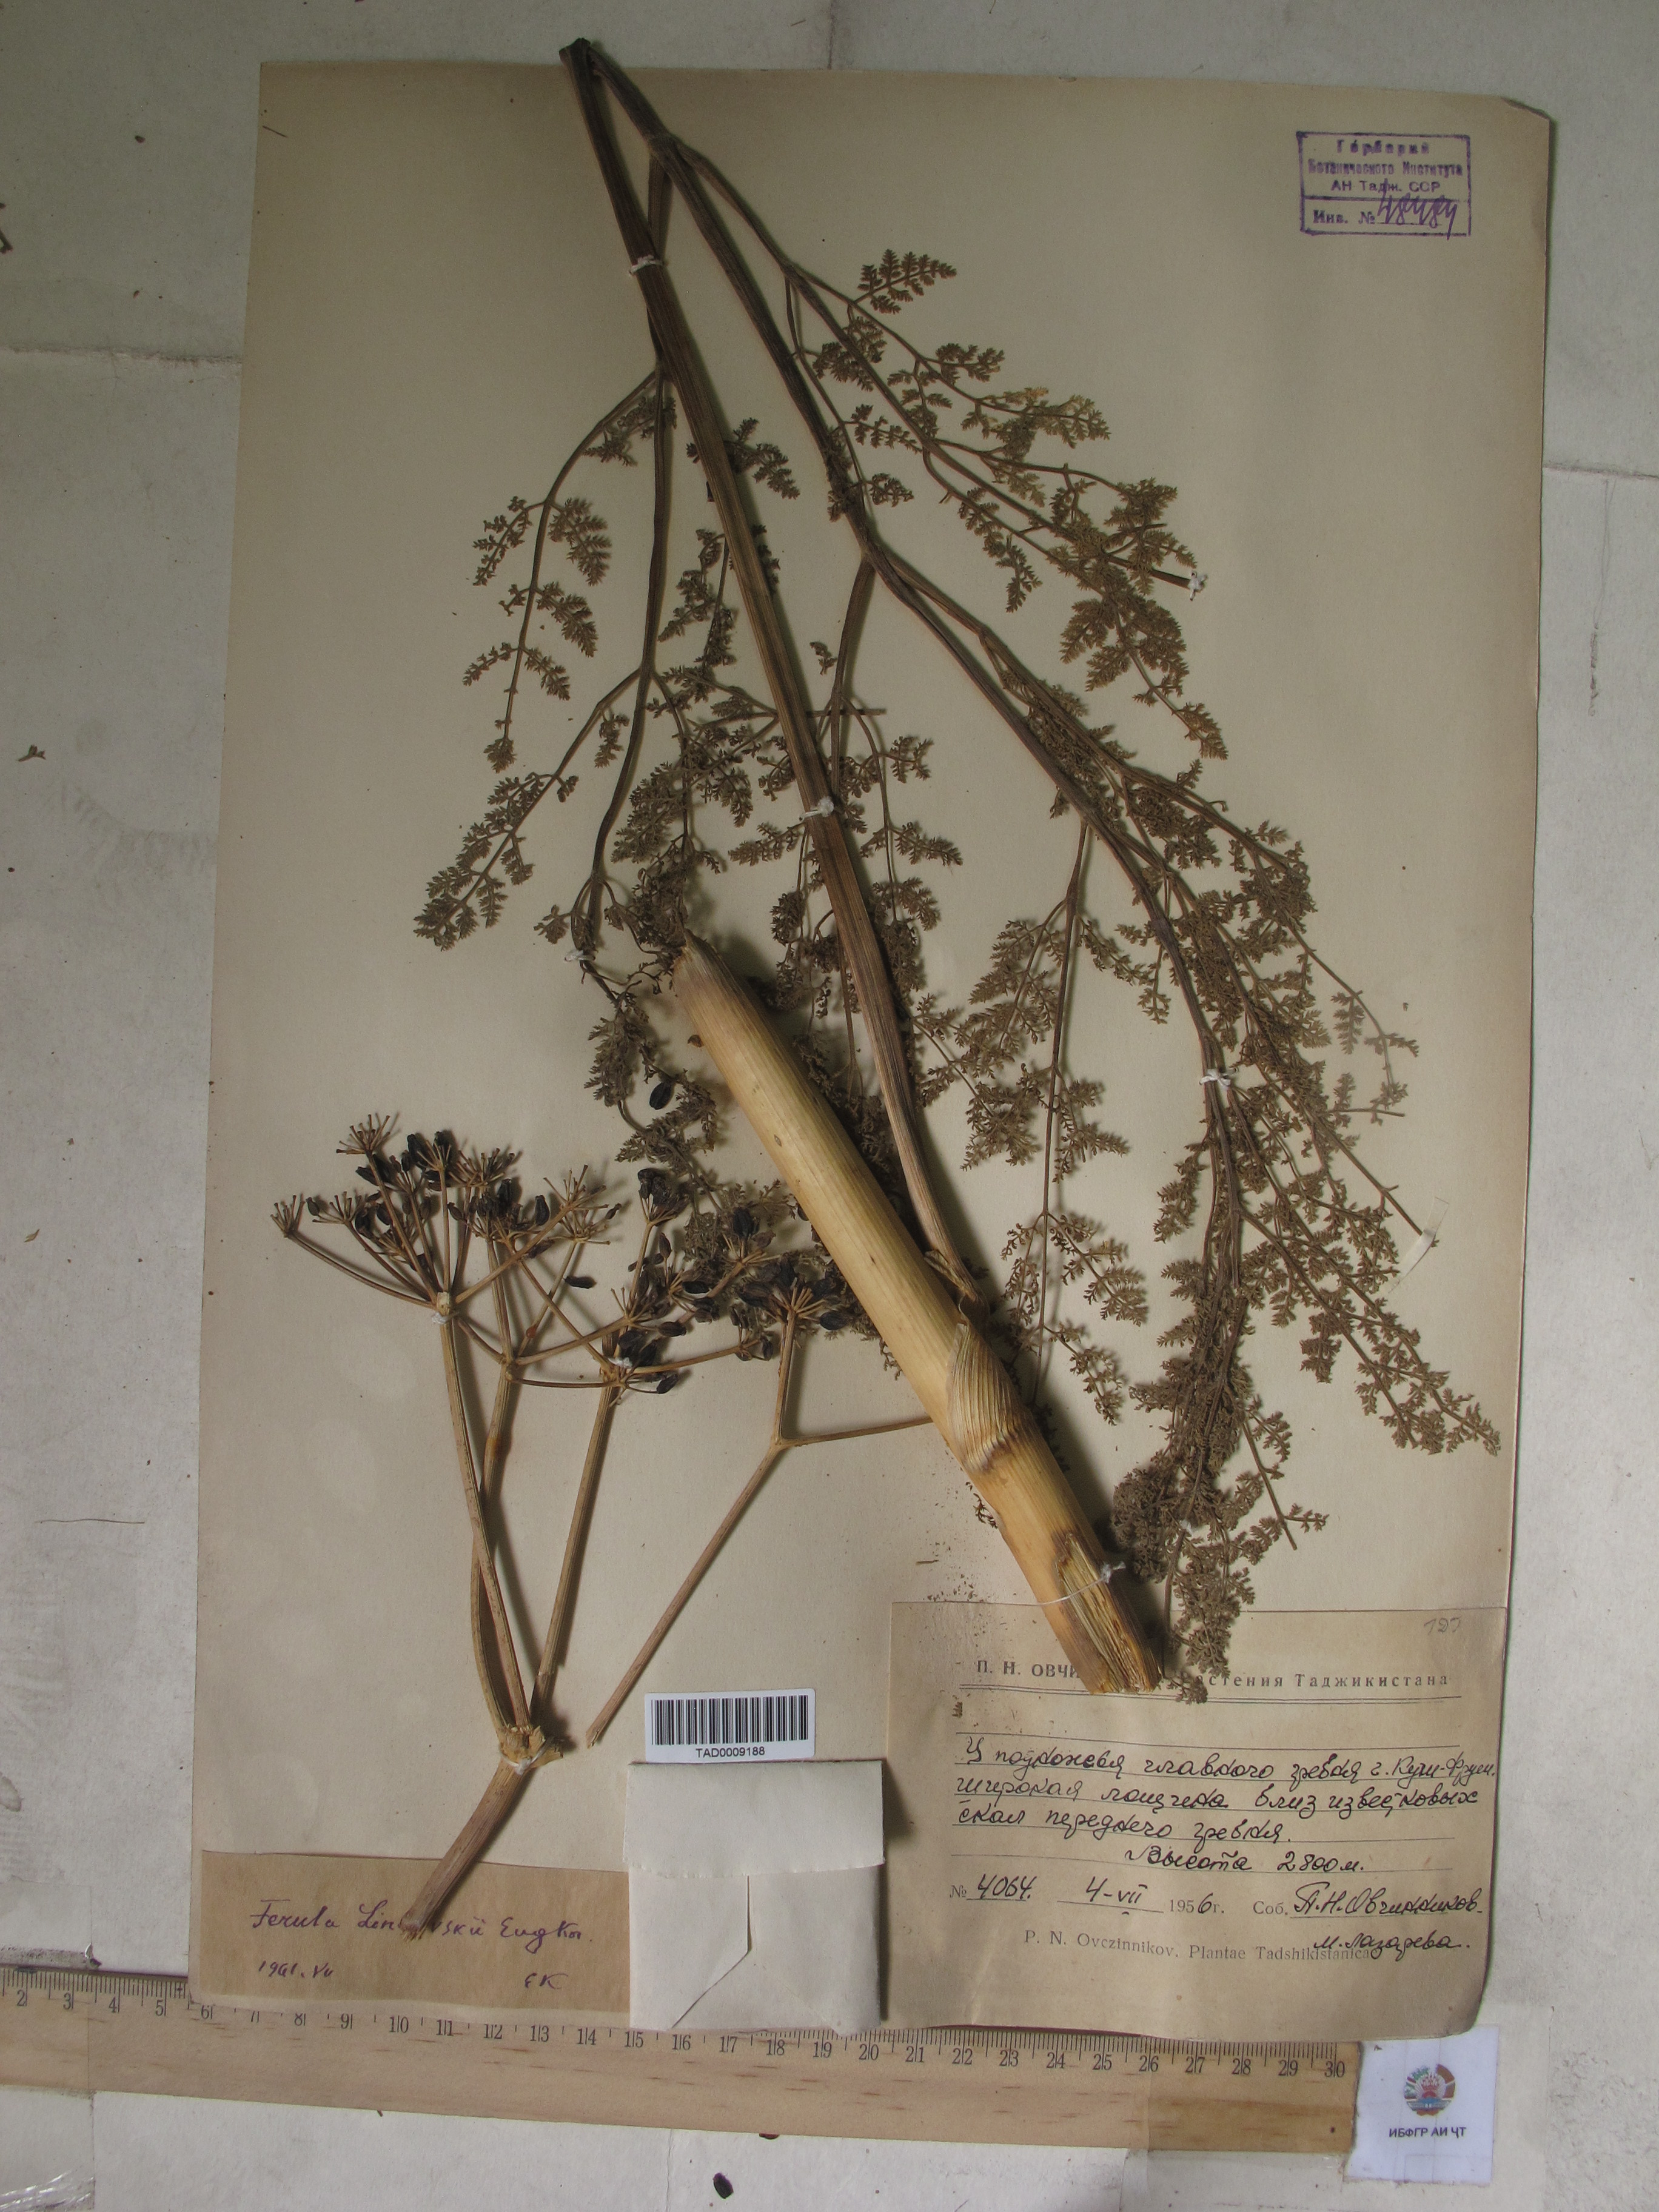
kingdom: Plantae
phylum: Tracheophyta
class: Magnoliopsida
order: Apiales
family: Apiaceae
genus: Ferula
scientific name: Ferula linczevskii
